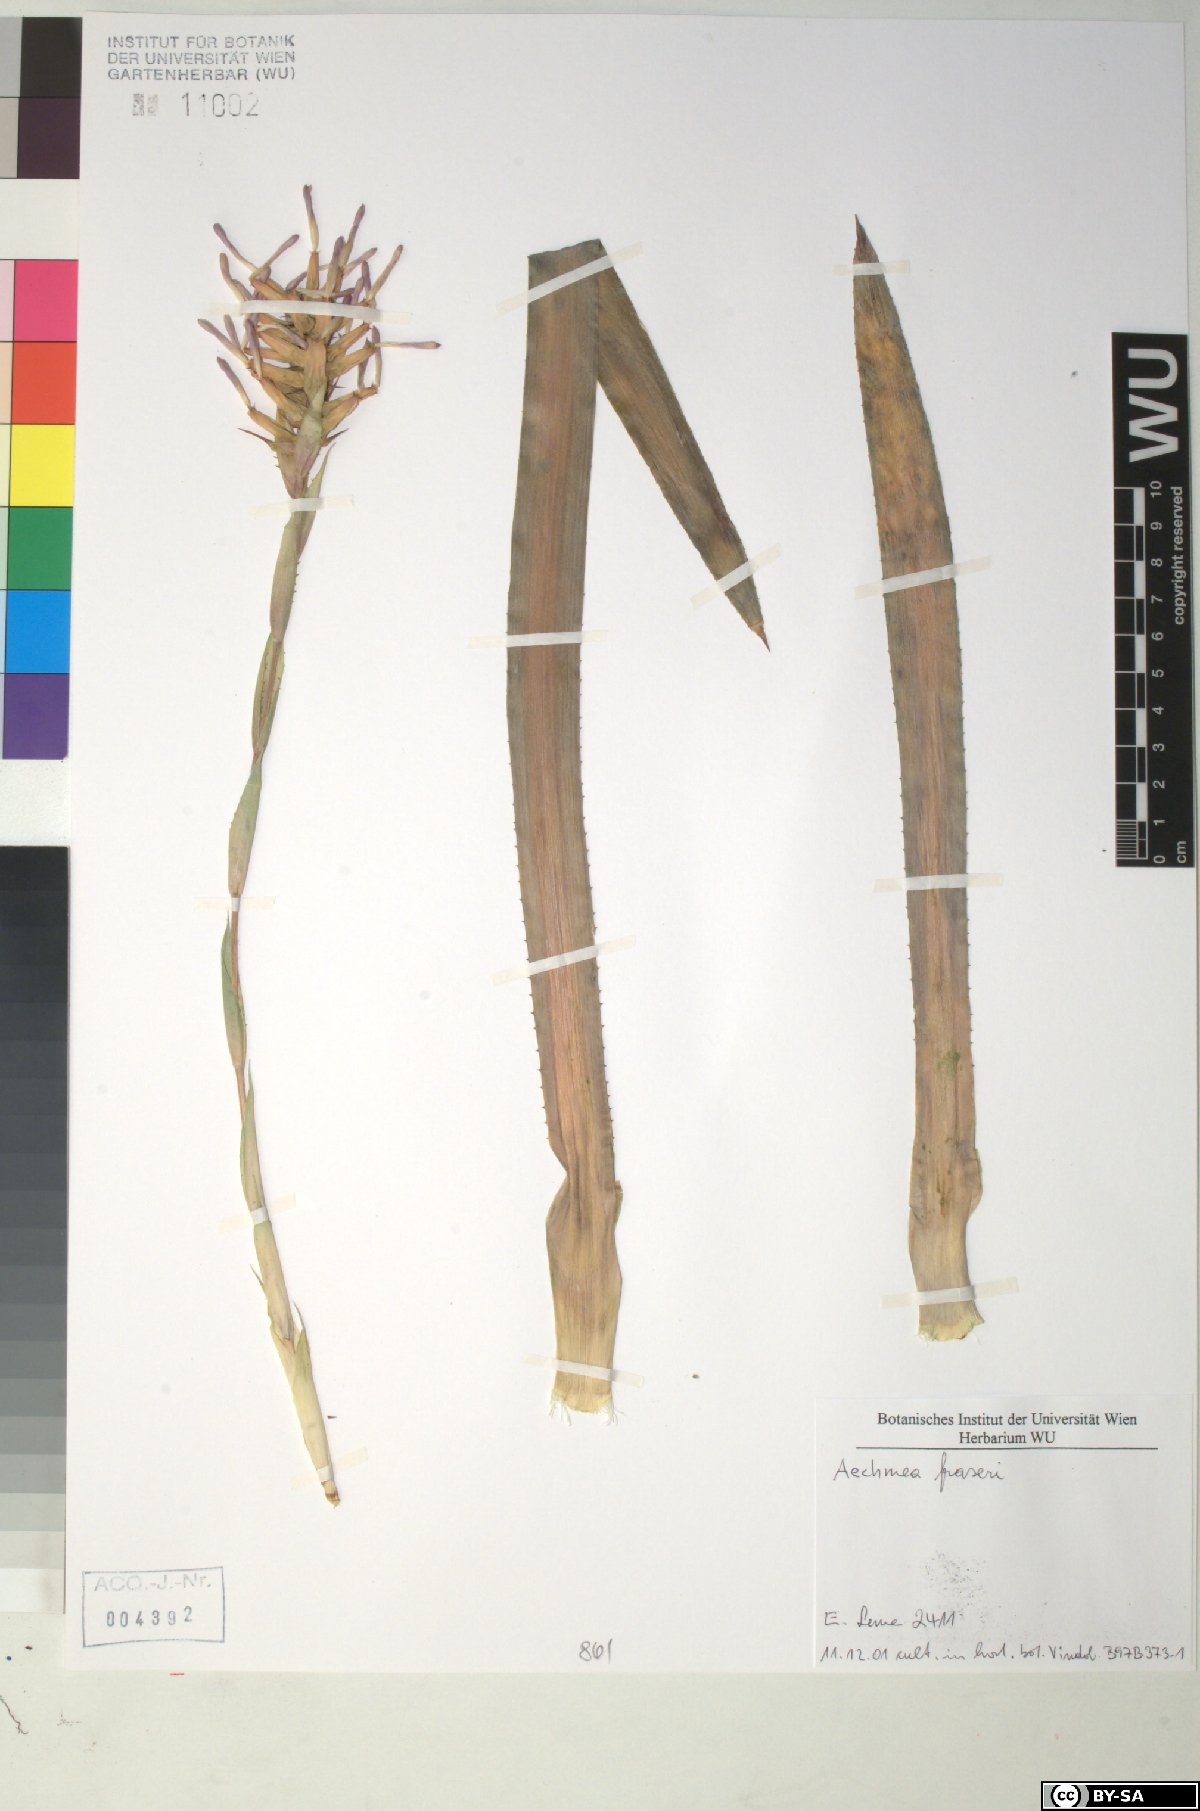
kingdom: Plantae
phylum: Tracheophyta
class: Liliopsida
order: Poales
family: Bromeliaceae
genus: Aechmea
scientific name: Aechmea
